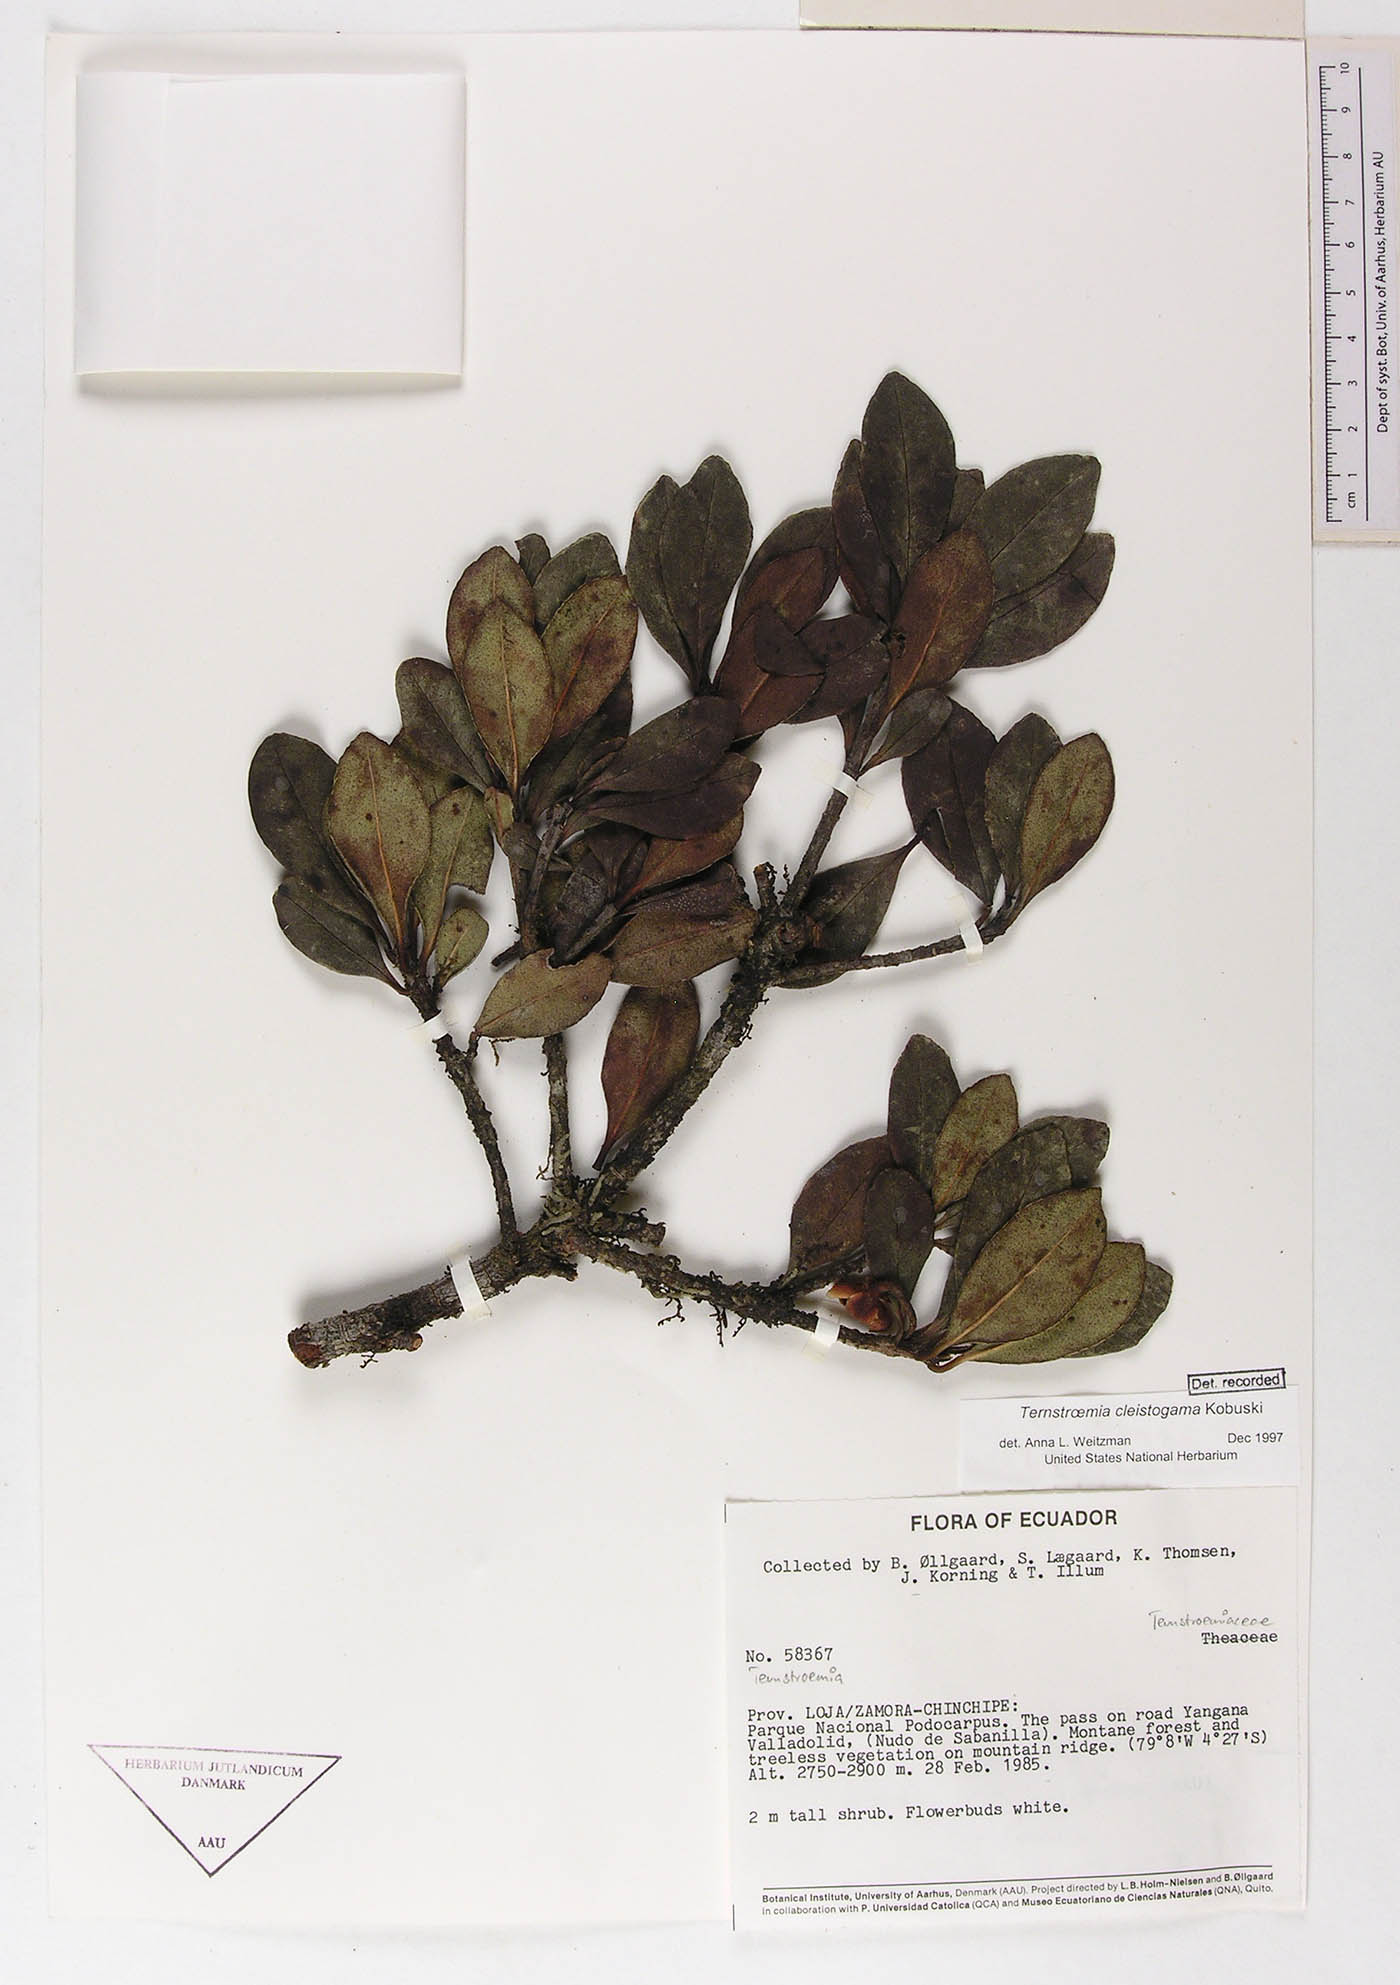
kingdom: Plantae
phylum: Tracheophyta
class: Magnoliopsida
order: Ericales
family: Pentaphylacaceae
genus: Ternstroemia
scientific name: Ternstroemia cleistogama
